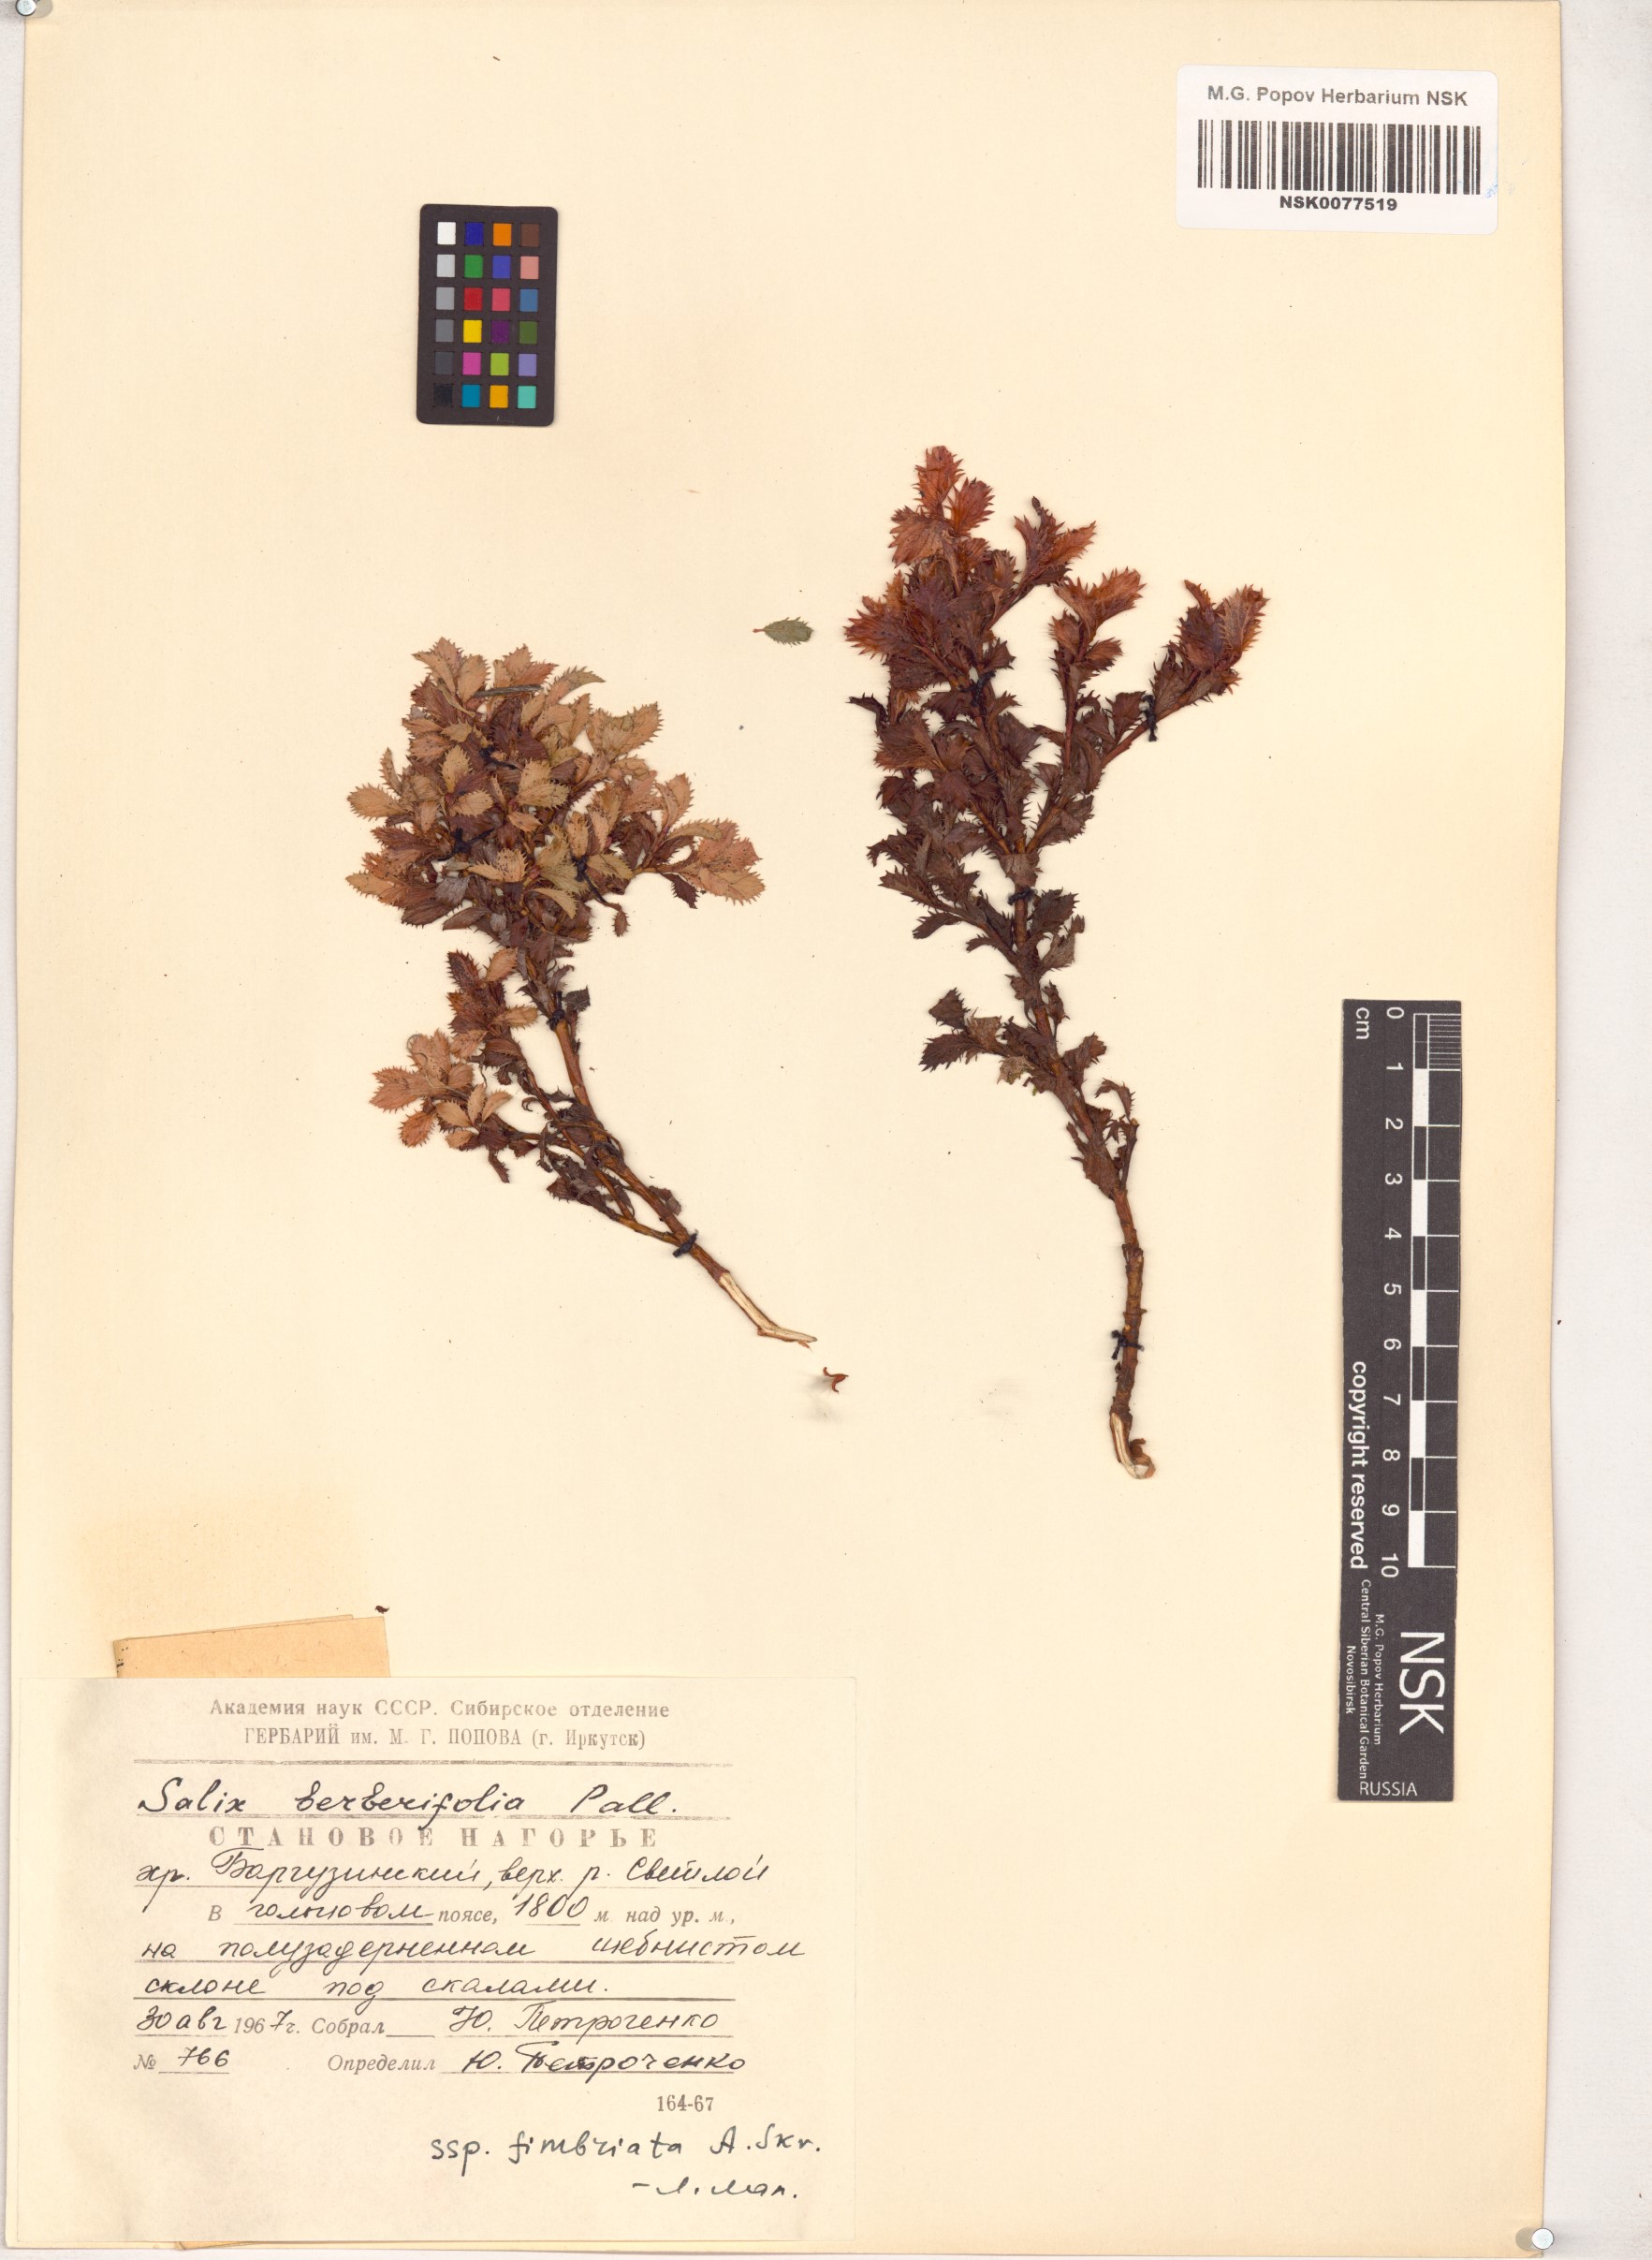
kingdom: Plantae
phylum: Tracheophyta
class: Magnoliopsida
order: Malpighiales
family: Salicaceae
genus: Salix
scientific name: Salix berberifolia
